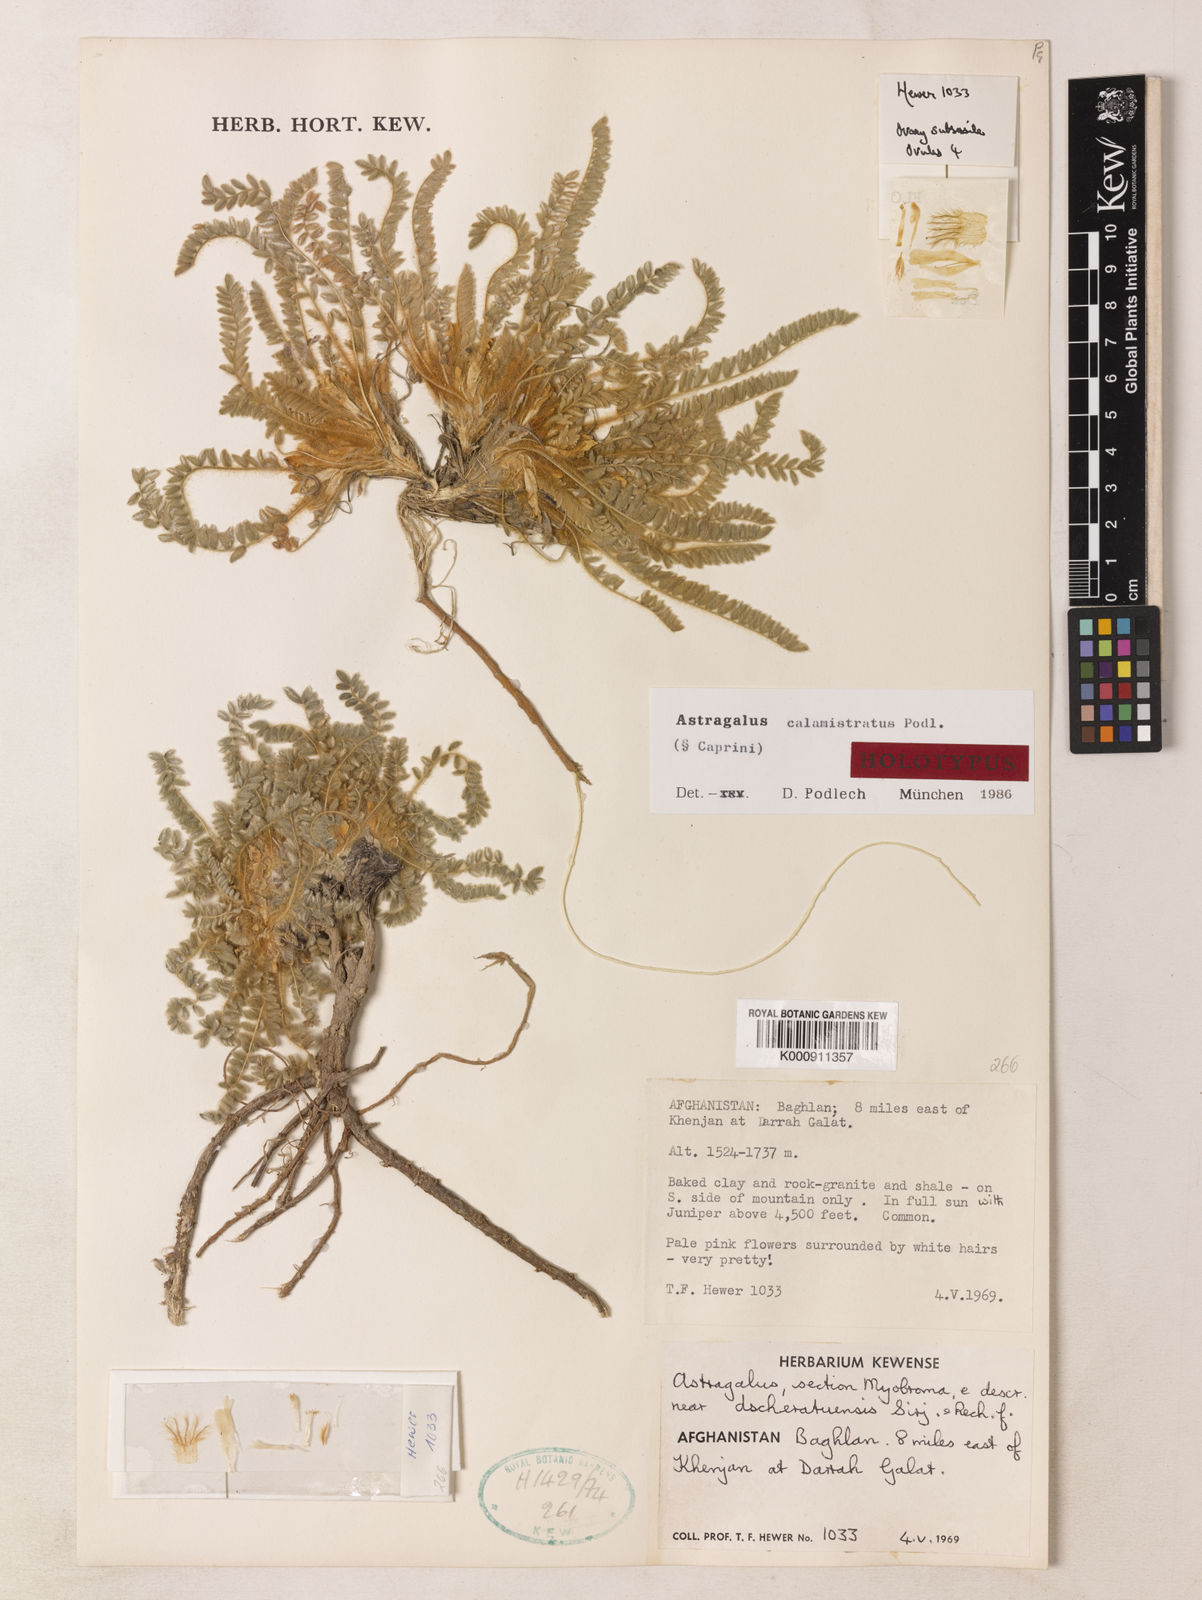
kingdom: Plantae
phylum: Tracheophyta
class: Magnoliopsida
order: Fabales
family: Fabaceae
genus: Astragalus
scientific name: Astragalus calamistratus
